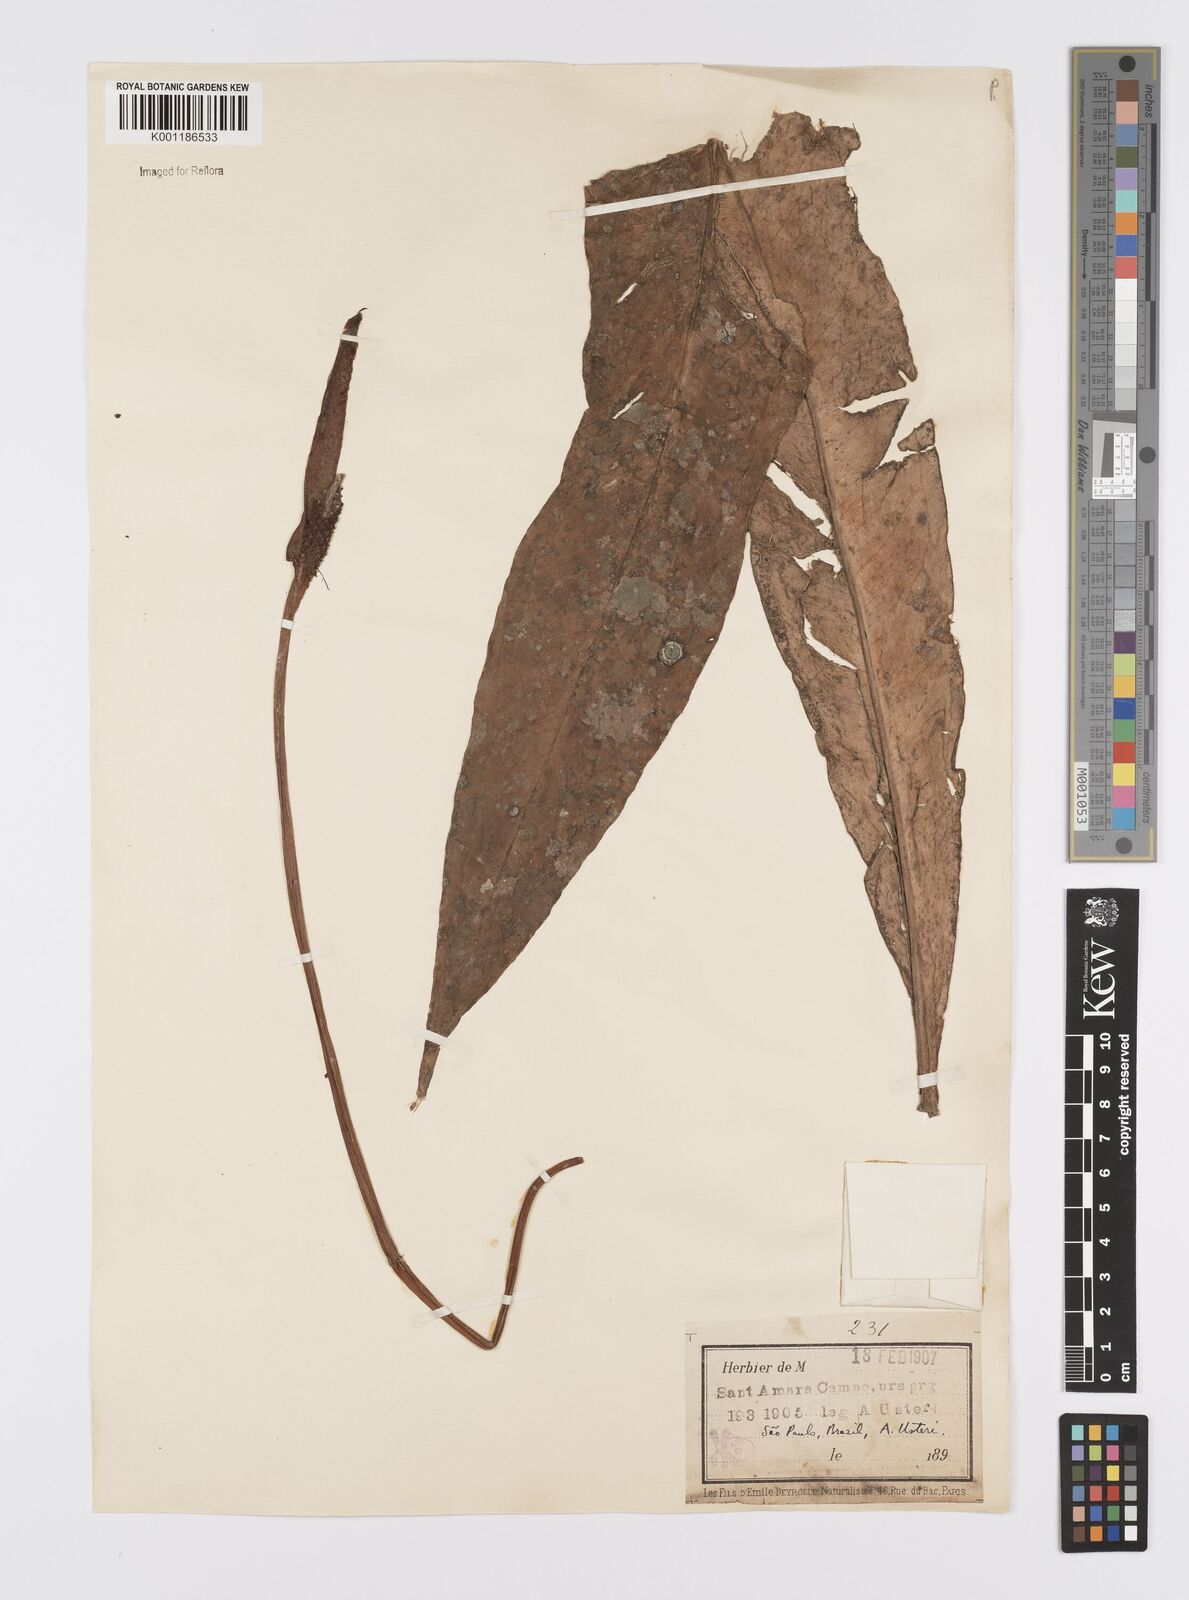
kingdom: Plantae
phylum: Tracheophyta
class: Liliopsida
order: Alismatales
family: Araceae
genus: Anthurium
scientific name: Anthurium intermedium
